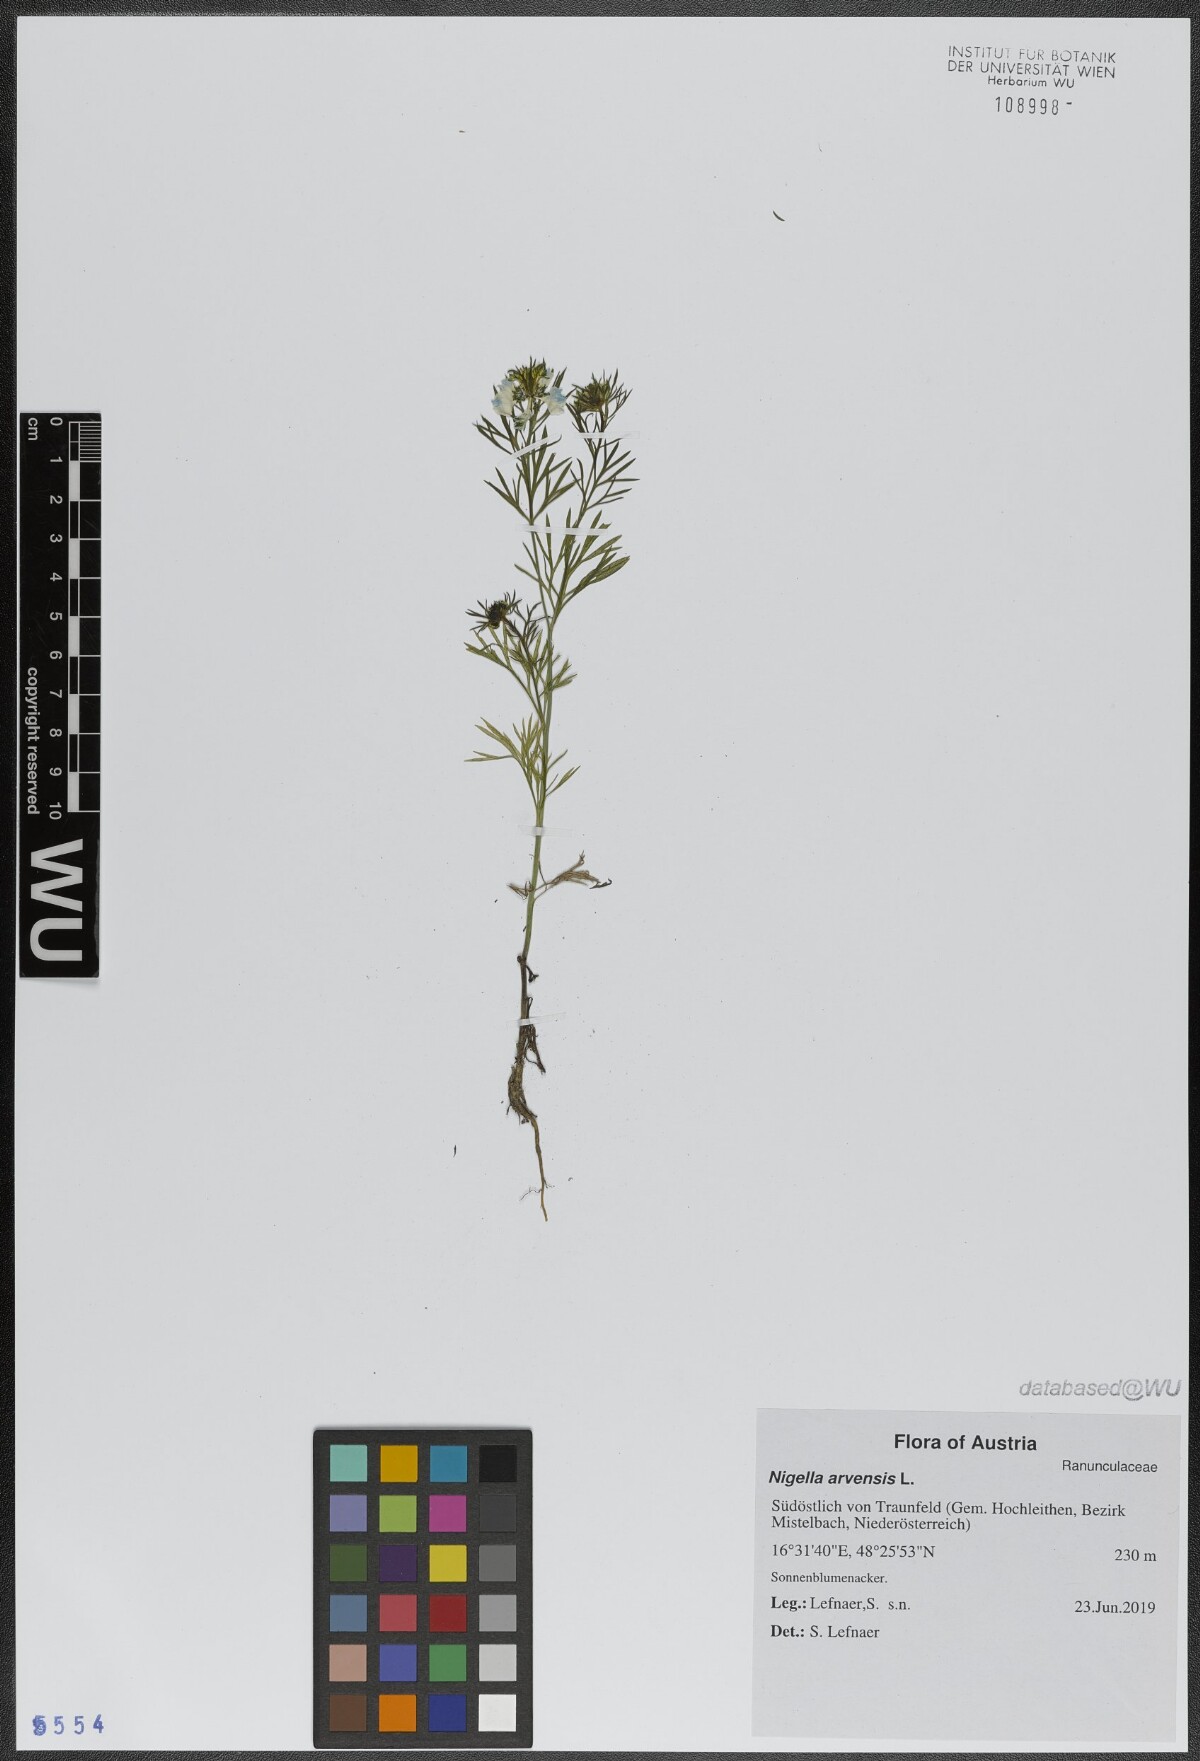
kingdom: Plantae
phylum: Tracheophyta
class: Magnoliopsida
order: Ranunculales
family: Ranunculaceae
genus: Nigella
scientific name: Nigella arvensis
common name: Wild fennel-flower
